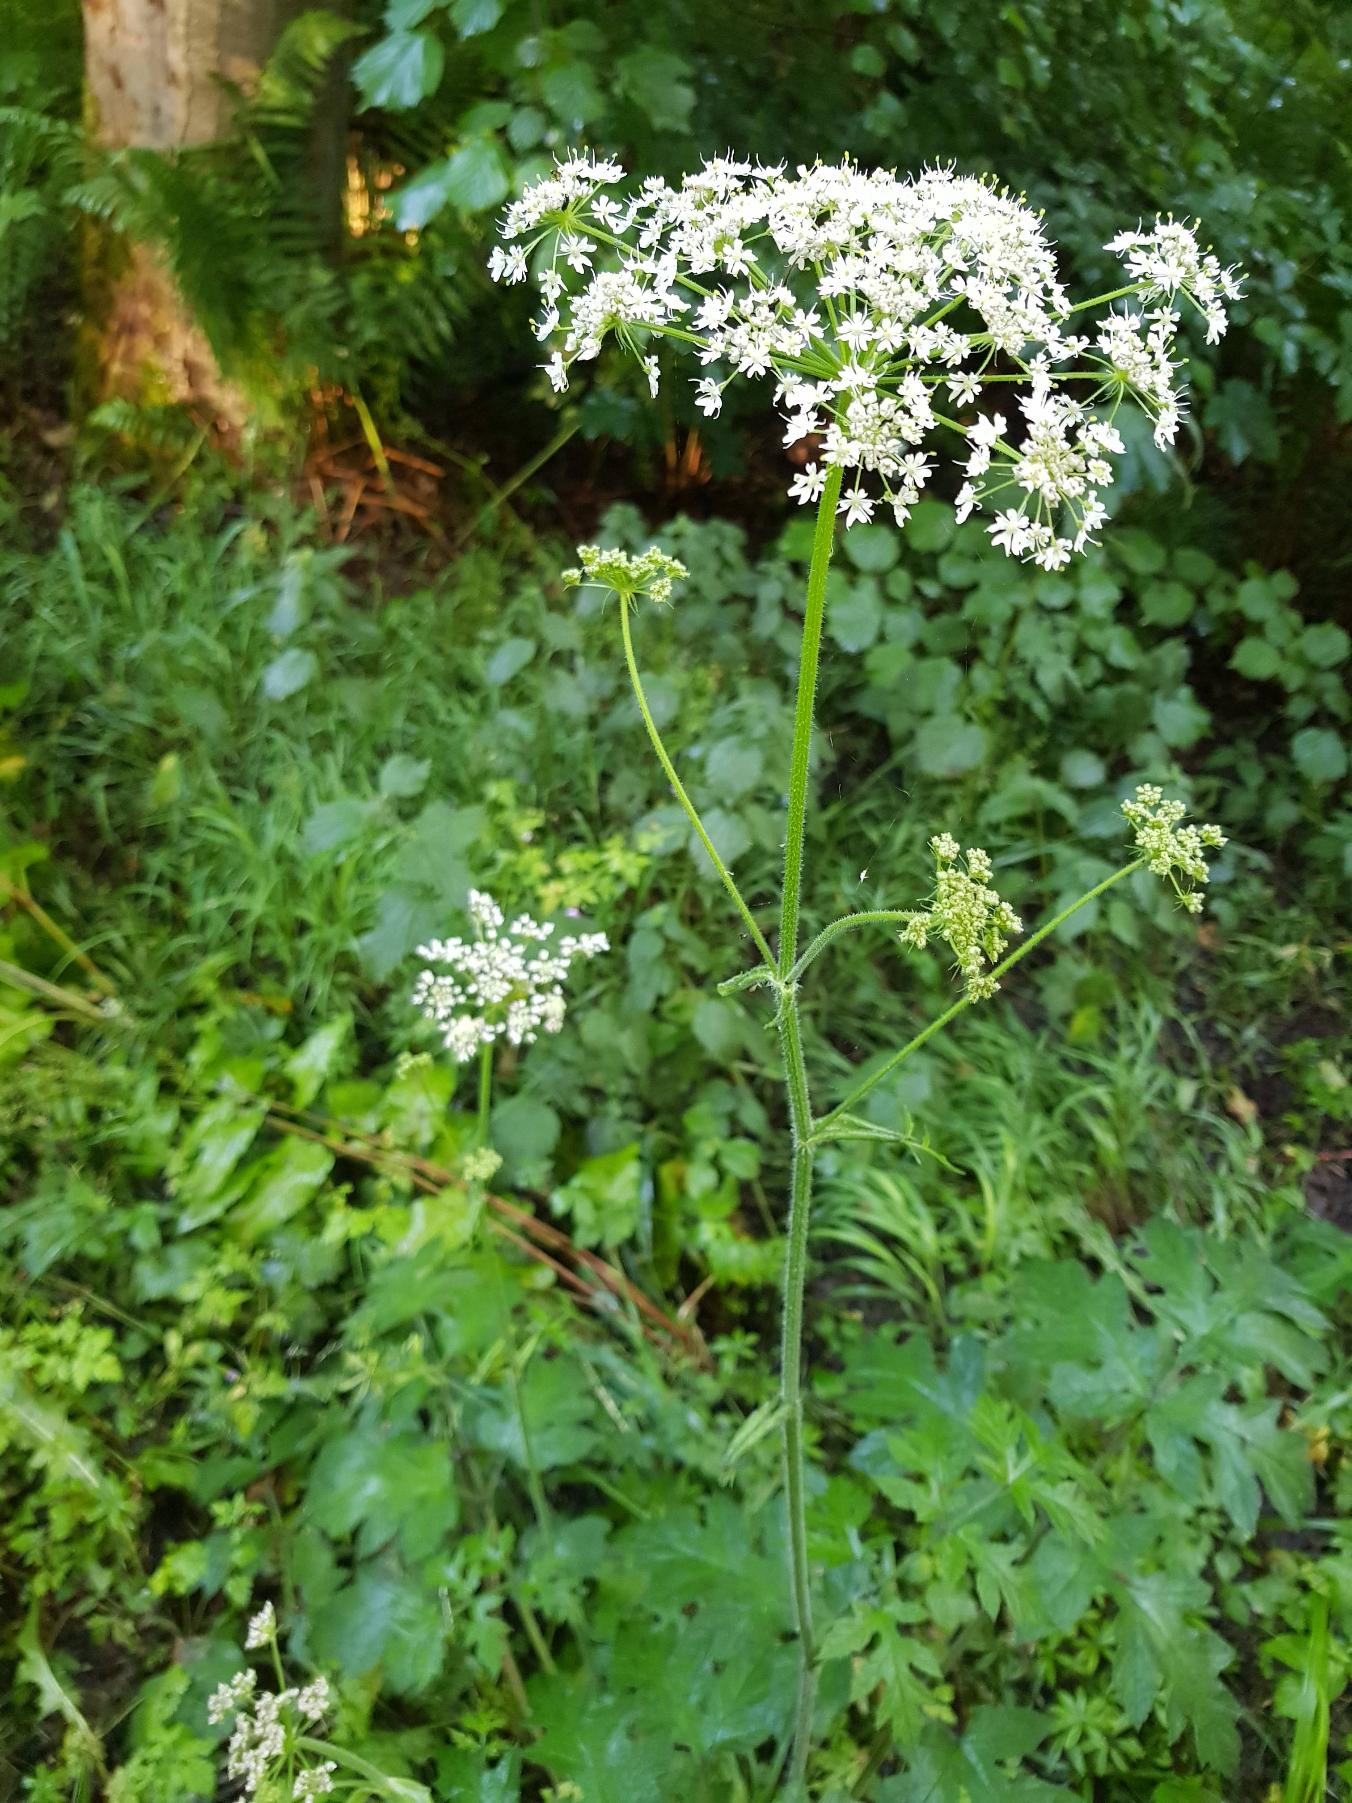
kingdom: Plantae
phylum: Tracheophyta
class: Magnoliopsida
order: Apiales
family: Apiaceae
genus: Heracleum
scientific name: Heracleum sphondylium
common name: Almindelig bjørneklo
